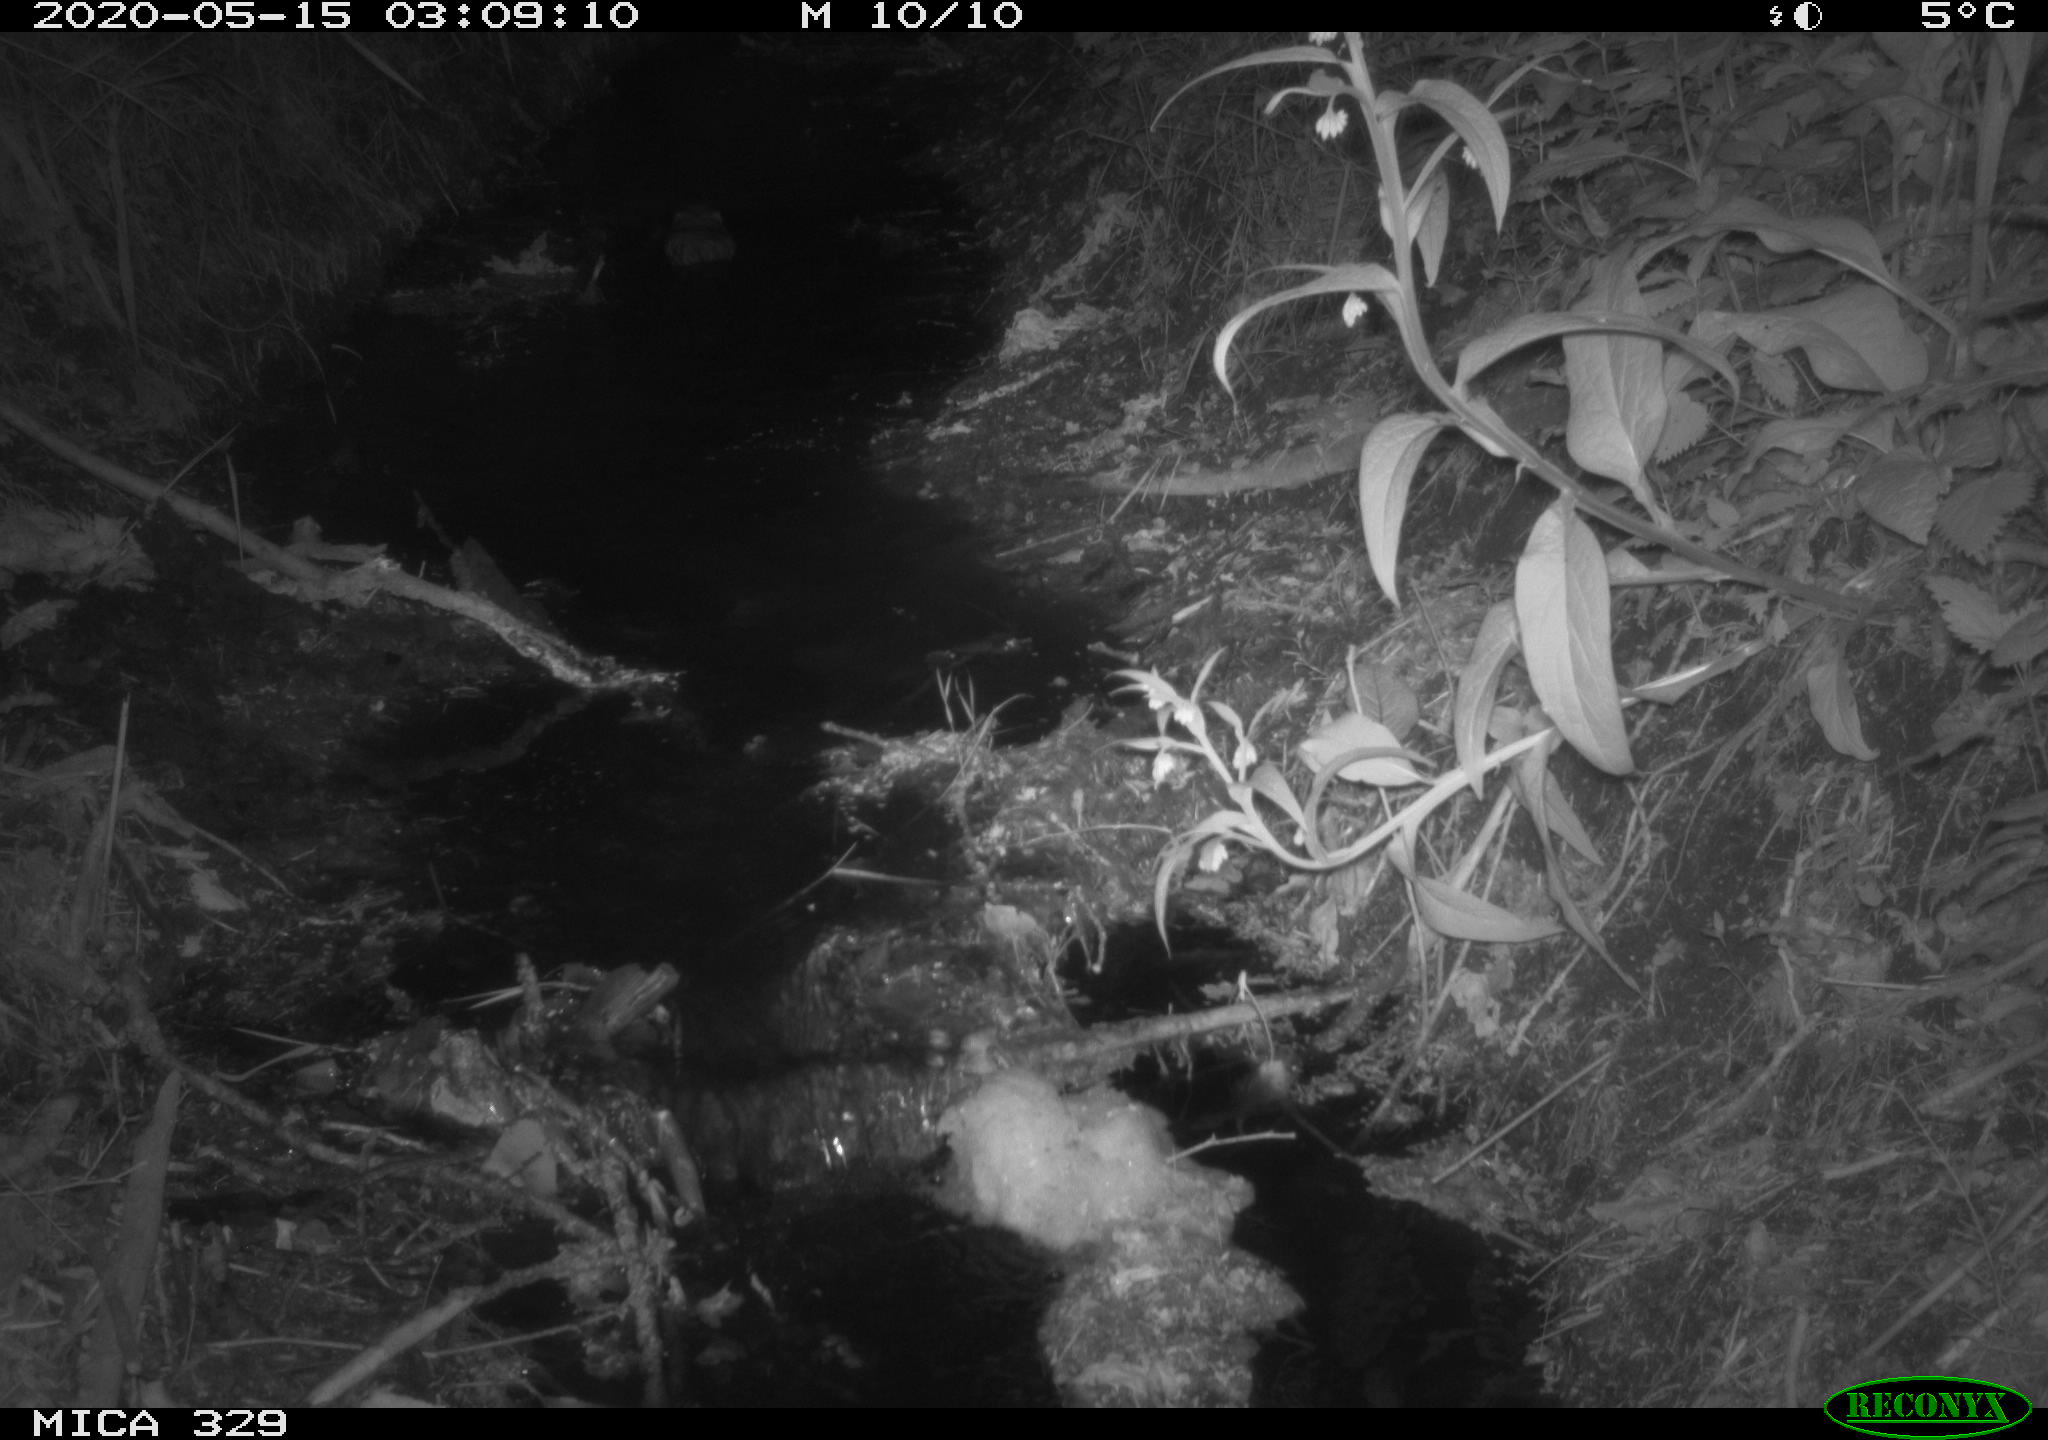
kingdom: Animalia
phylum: Chordata
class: Mammalia
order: Rodentia
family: Cricetidae
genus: Ondatra
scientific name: Ondatra zibethicus
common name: Muskrat
